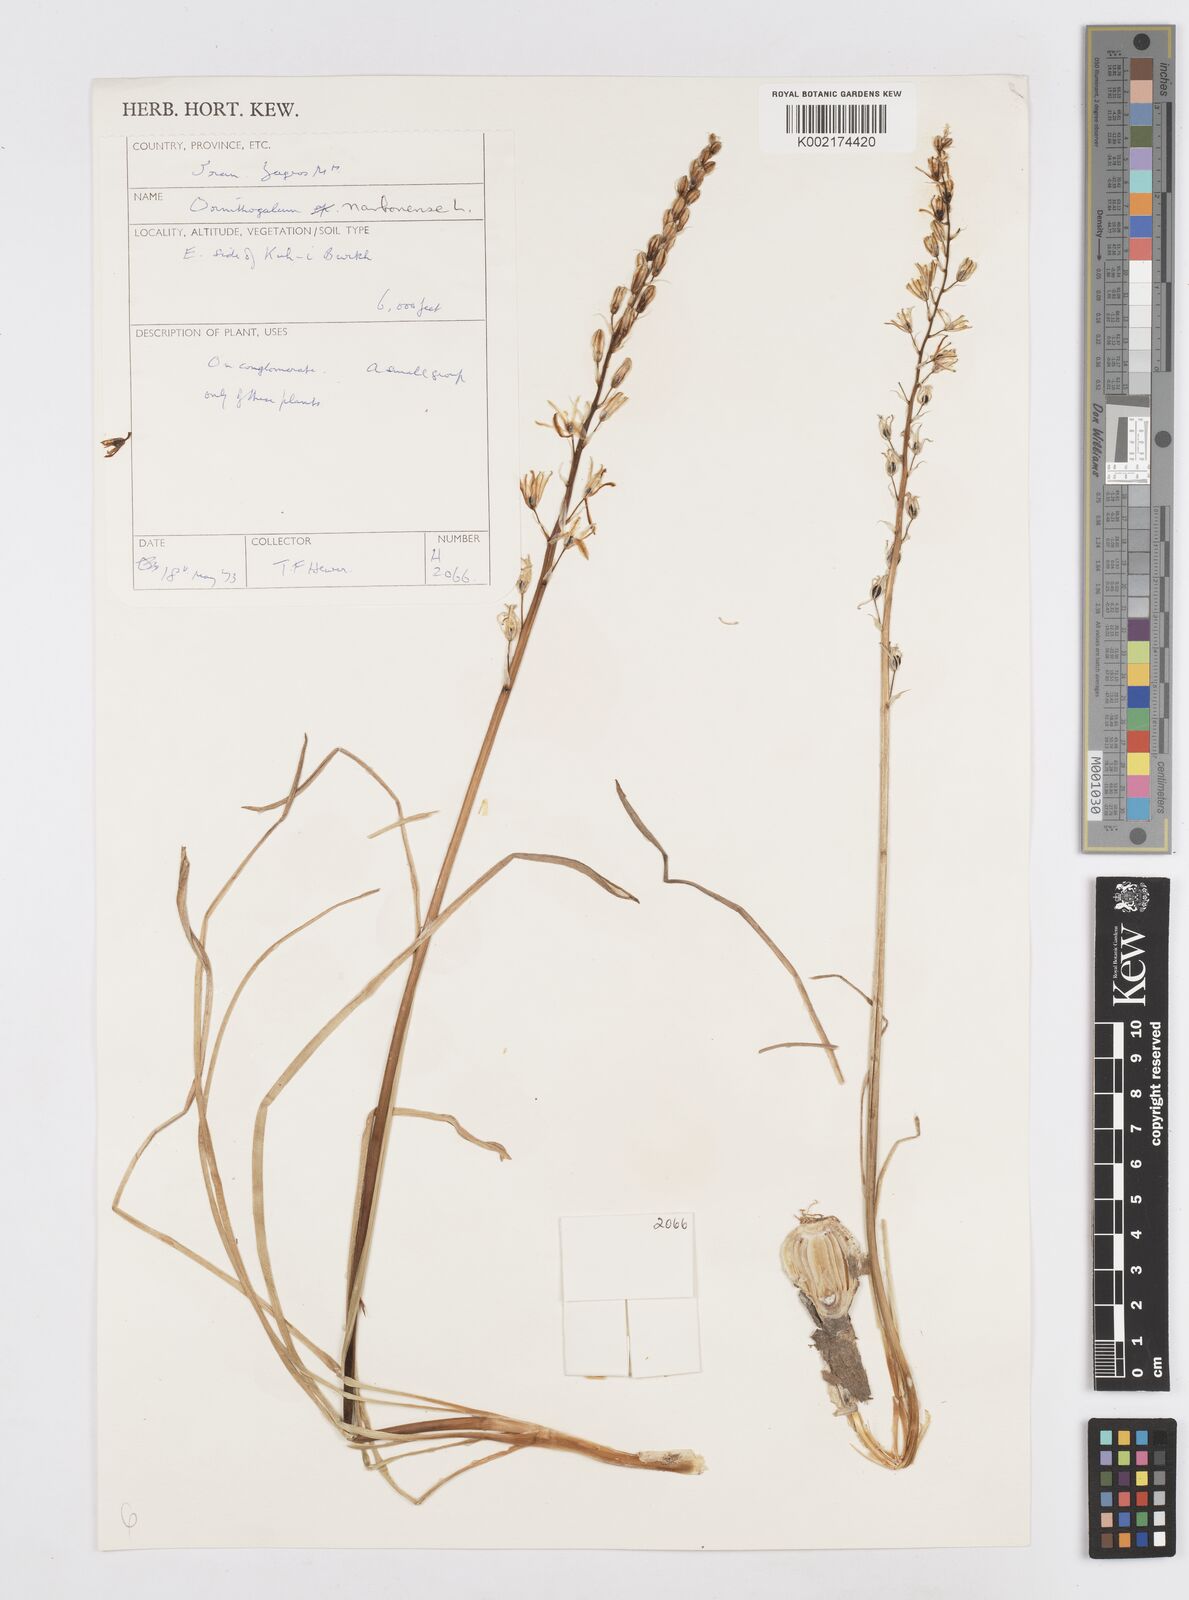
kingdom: Plantae
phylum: Tracheophyta
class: Liliopsida
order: Asparagales
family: Asparagaceae
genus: Ornithogalum
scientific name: Ornithogalum narbonense
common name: Bath-asparagus
